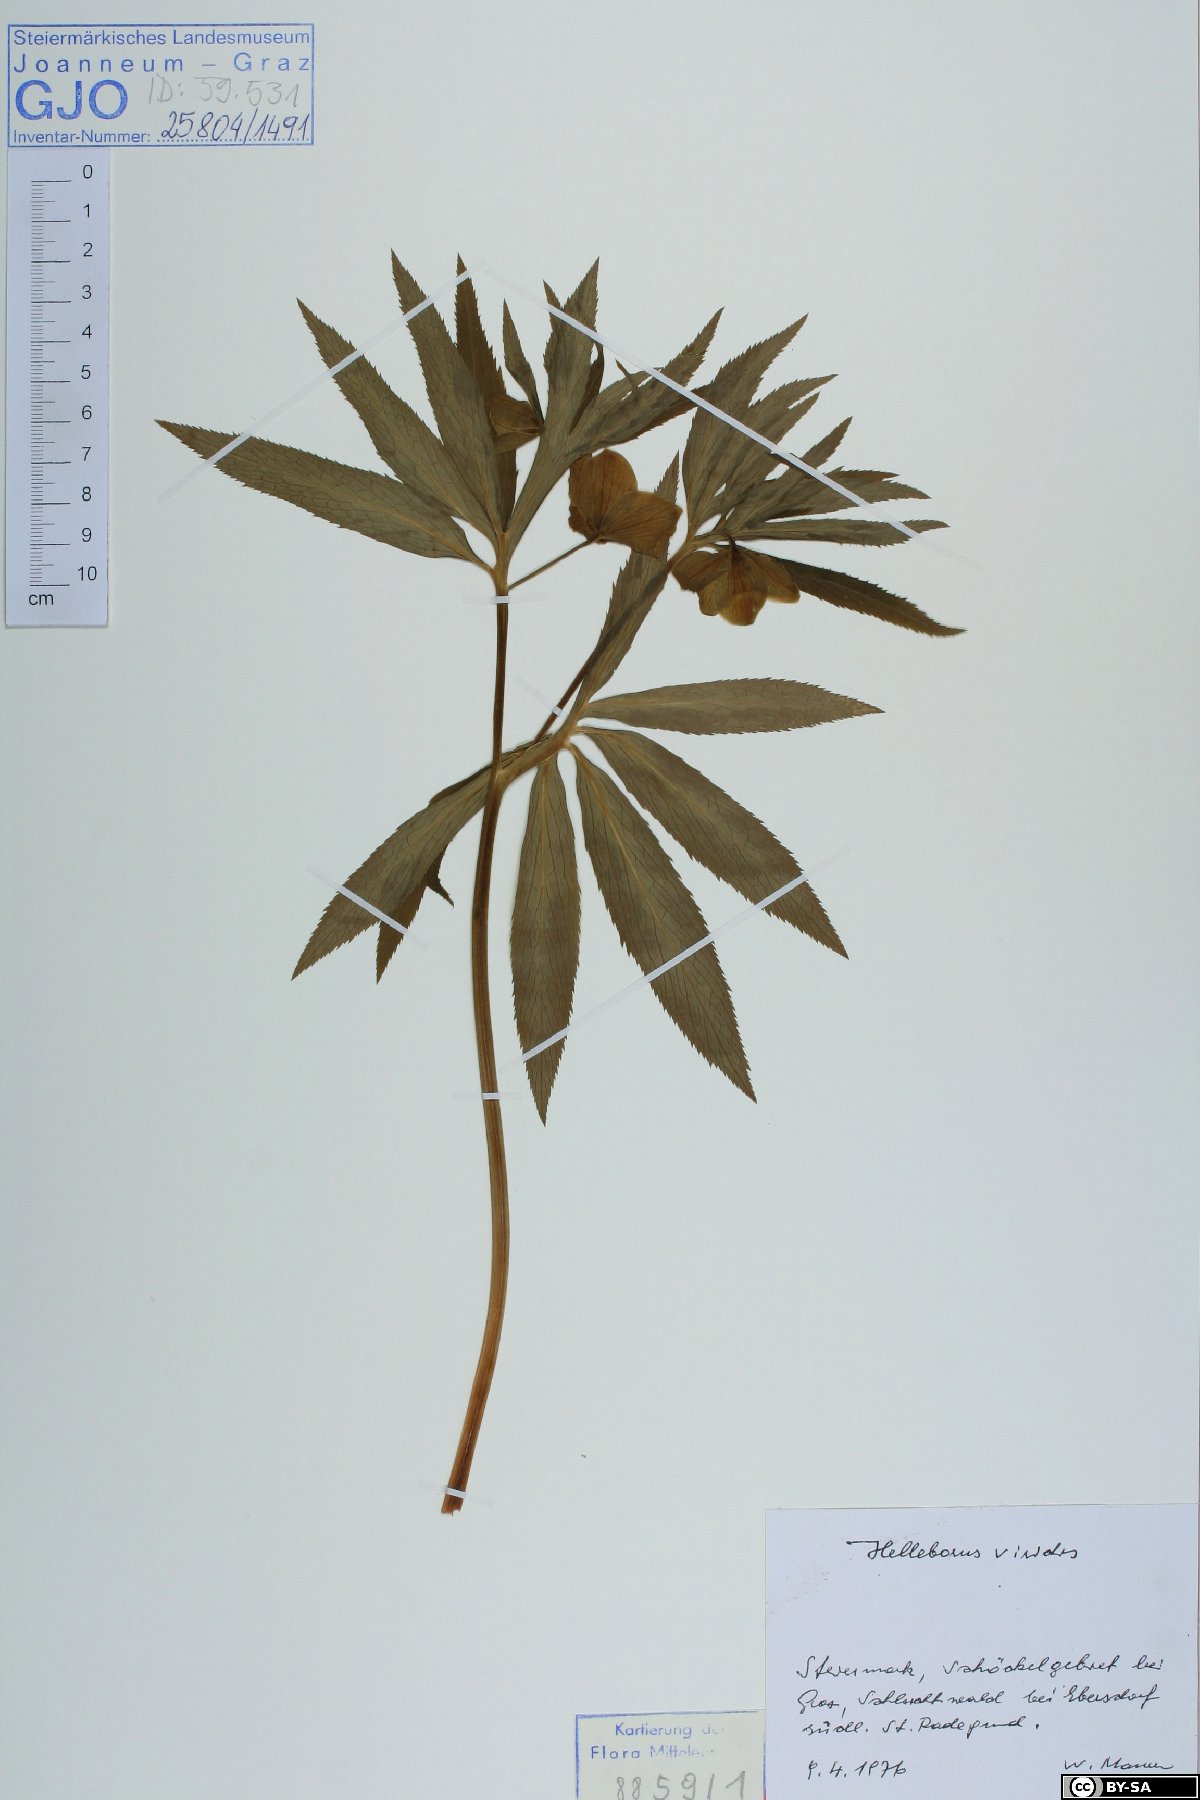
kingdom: Plantae
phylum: Tracheophyta
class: Magnoliopsida
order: Ranunculales
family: Ranunculaceae
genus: Helleborus
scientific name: Helleborus dumetorum
